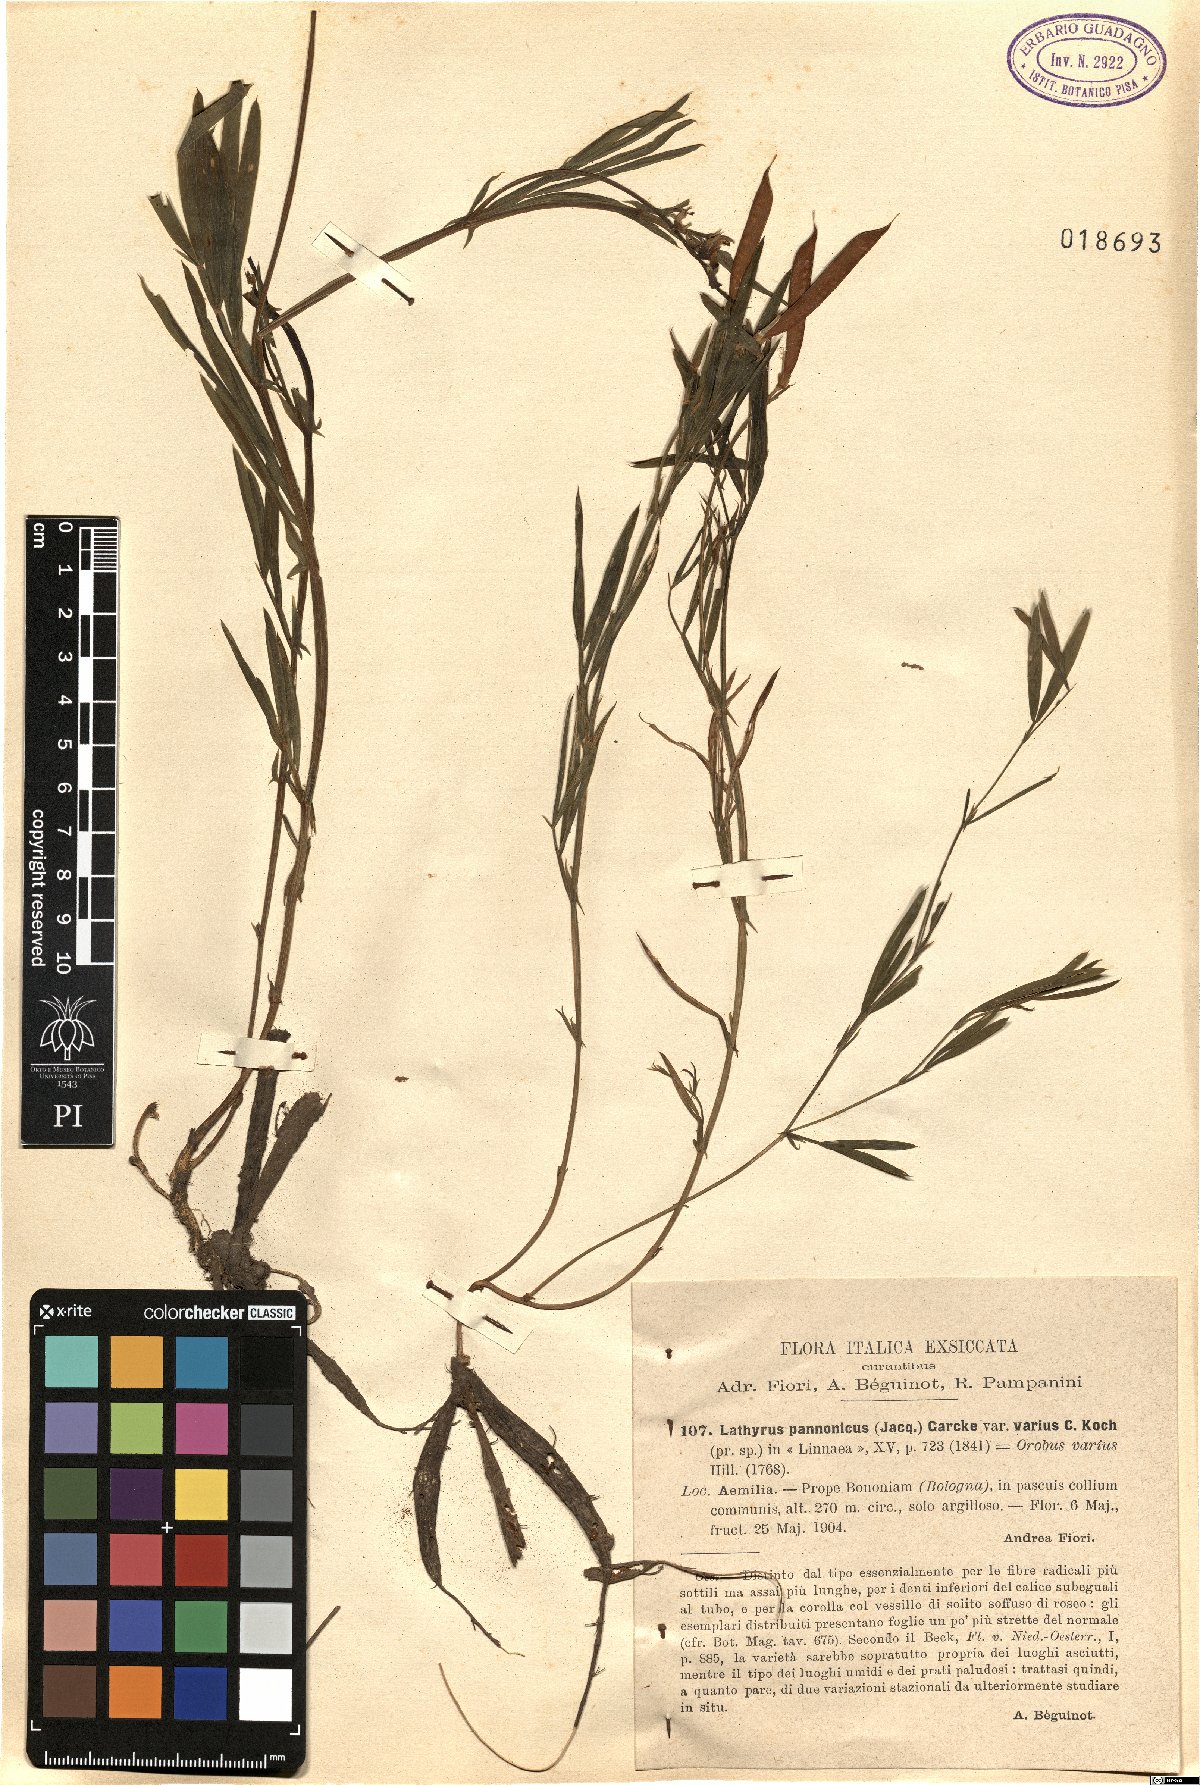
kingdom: Plantae
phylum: Tracheophyta
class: Magnoliopsida
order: Fabales
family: Fabaceae
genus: Lathyrus
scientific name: Lathyrus pannonicus
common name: Pea
